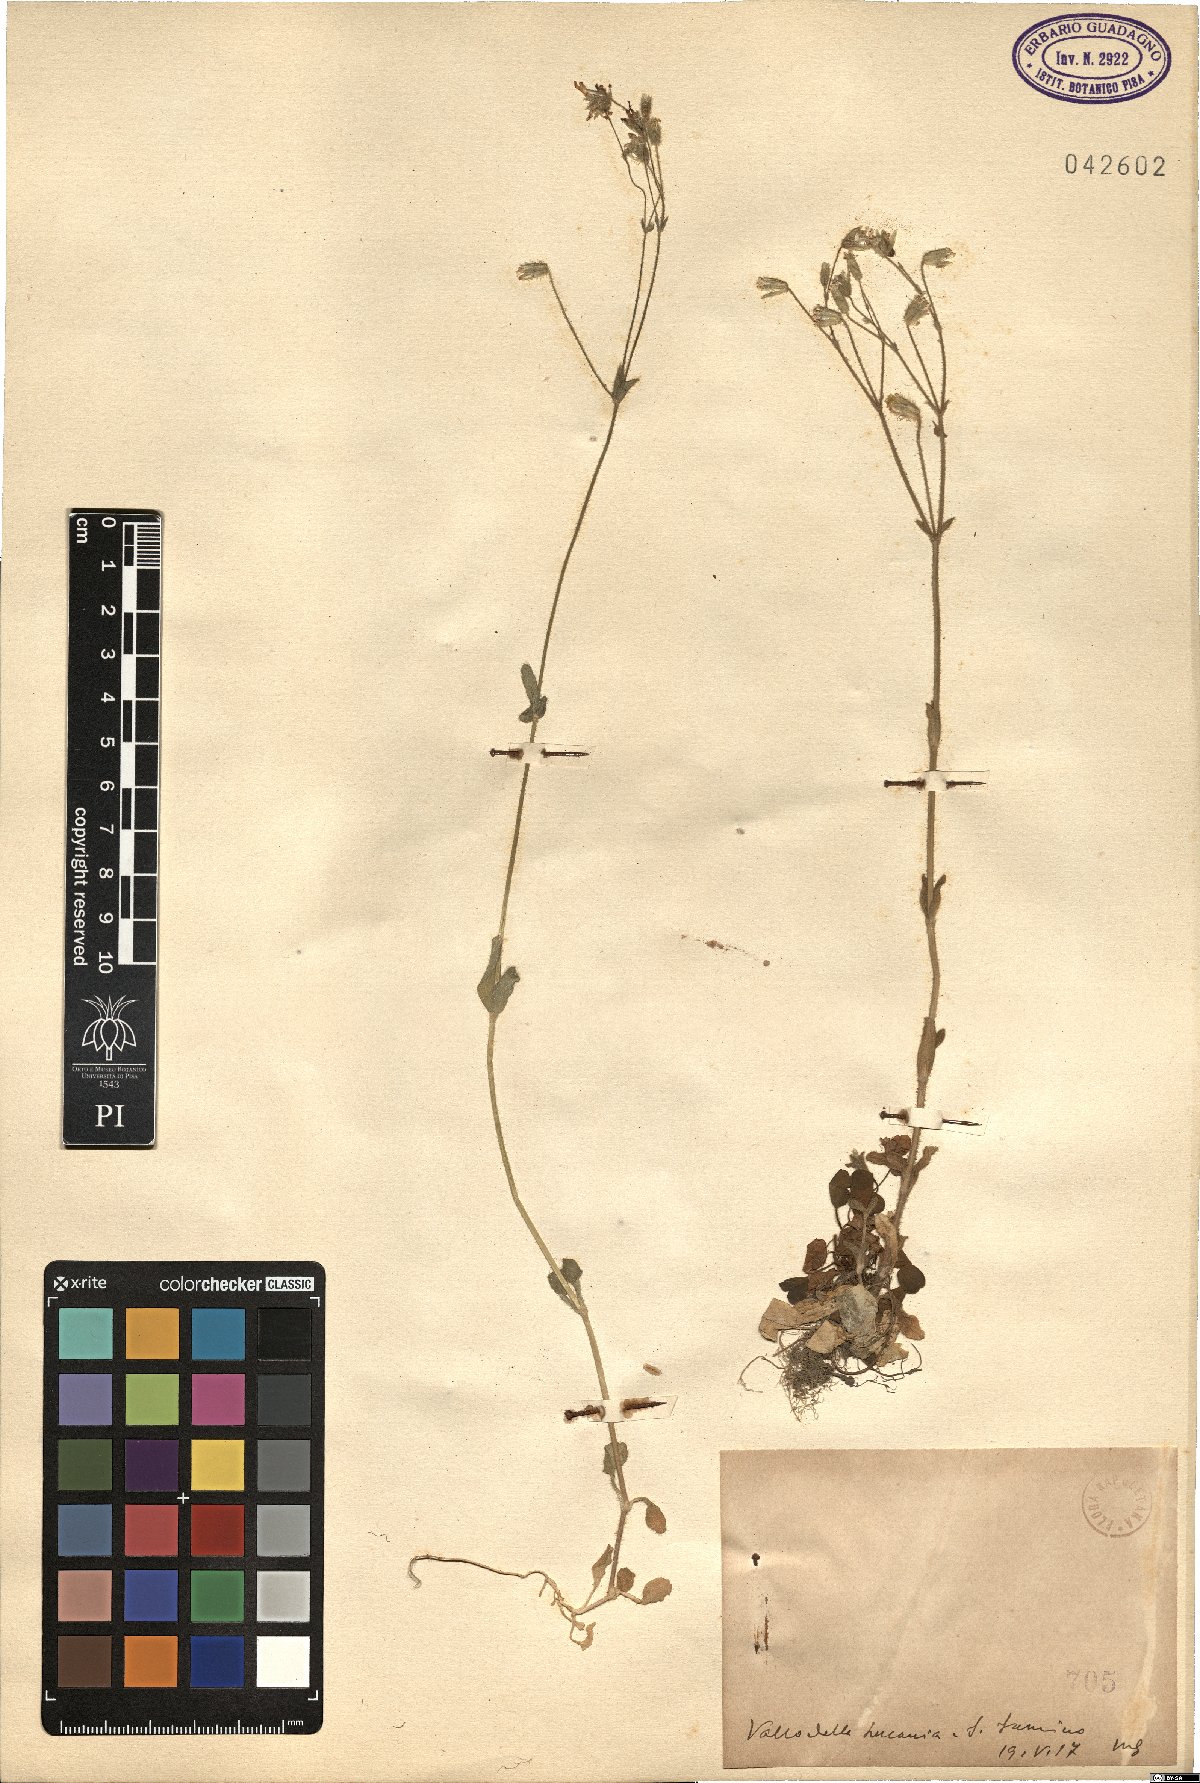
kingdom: Plantae
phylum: Tracheophyta
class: Magnoliopsida
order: Caryophyllales
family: Caryophyllaceae
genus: Cerastium
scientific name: Cerastium
